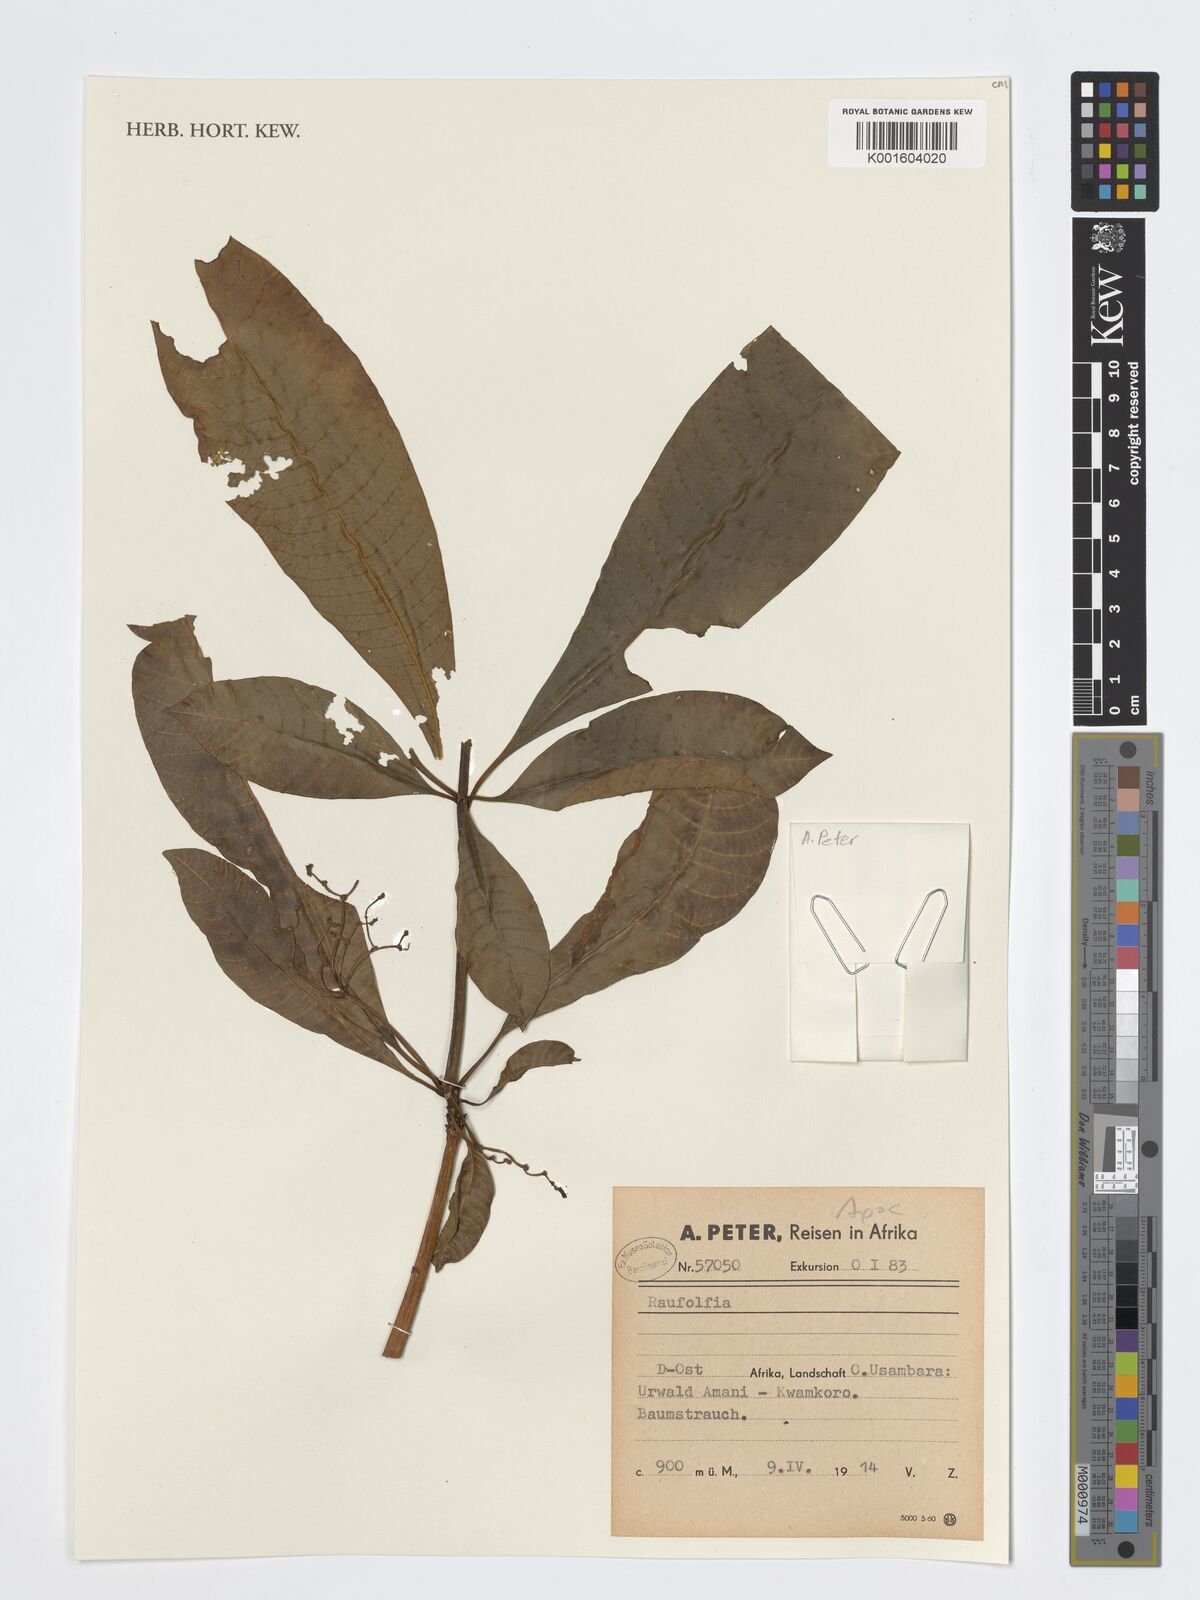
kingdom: Plantae
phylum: Tracheophyta
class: Magnoliopsida
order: Gentianales
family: Apocynaceae
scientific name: Apocynaceae
